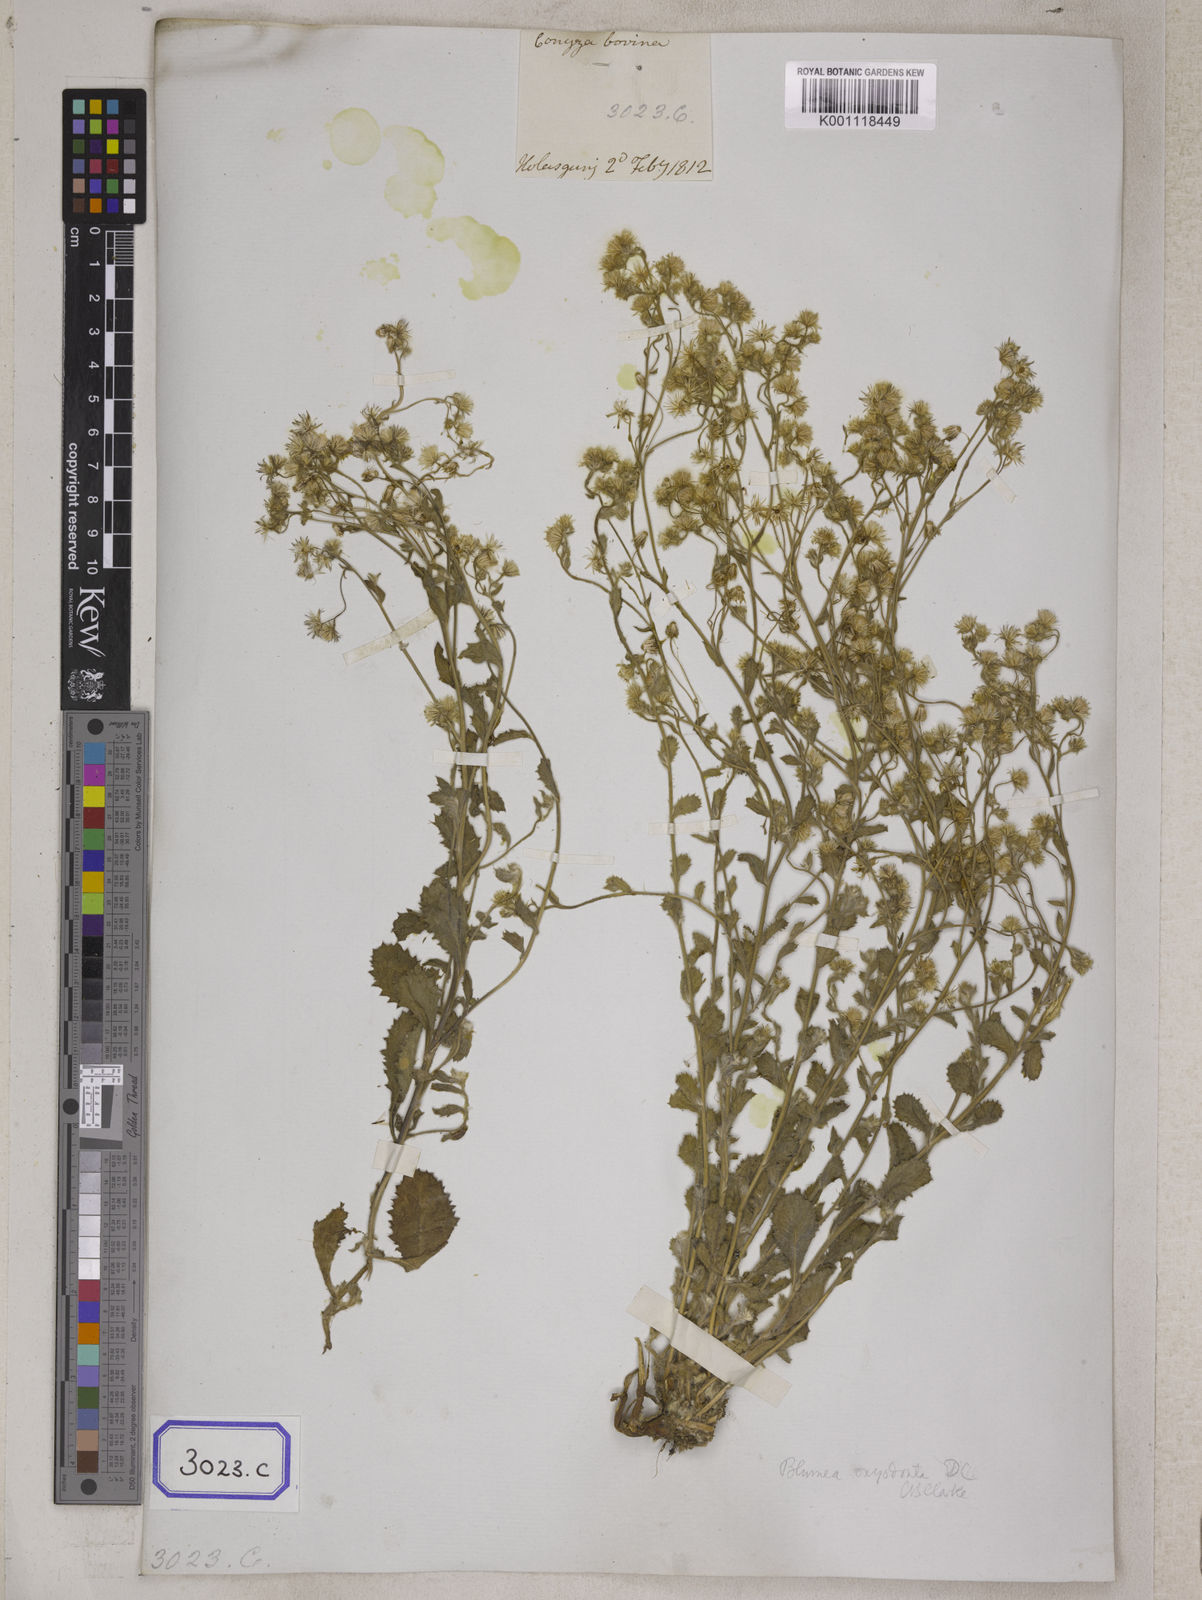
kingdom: Plantae
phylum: Tracheophyta
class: Magnoliopsida
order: Asterales
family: Asteraceae
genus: Blumea
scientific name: Blumea oxyodonta
